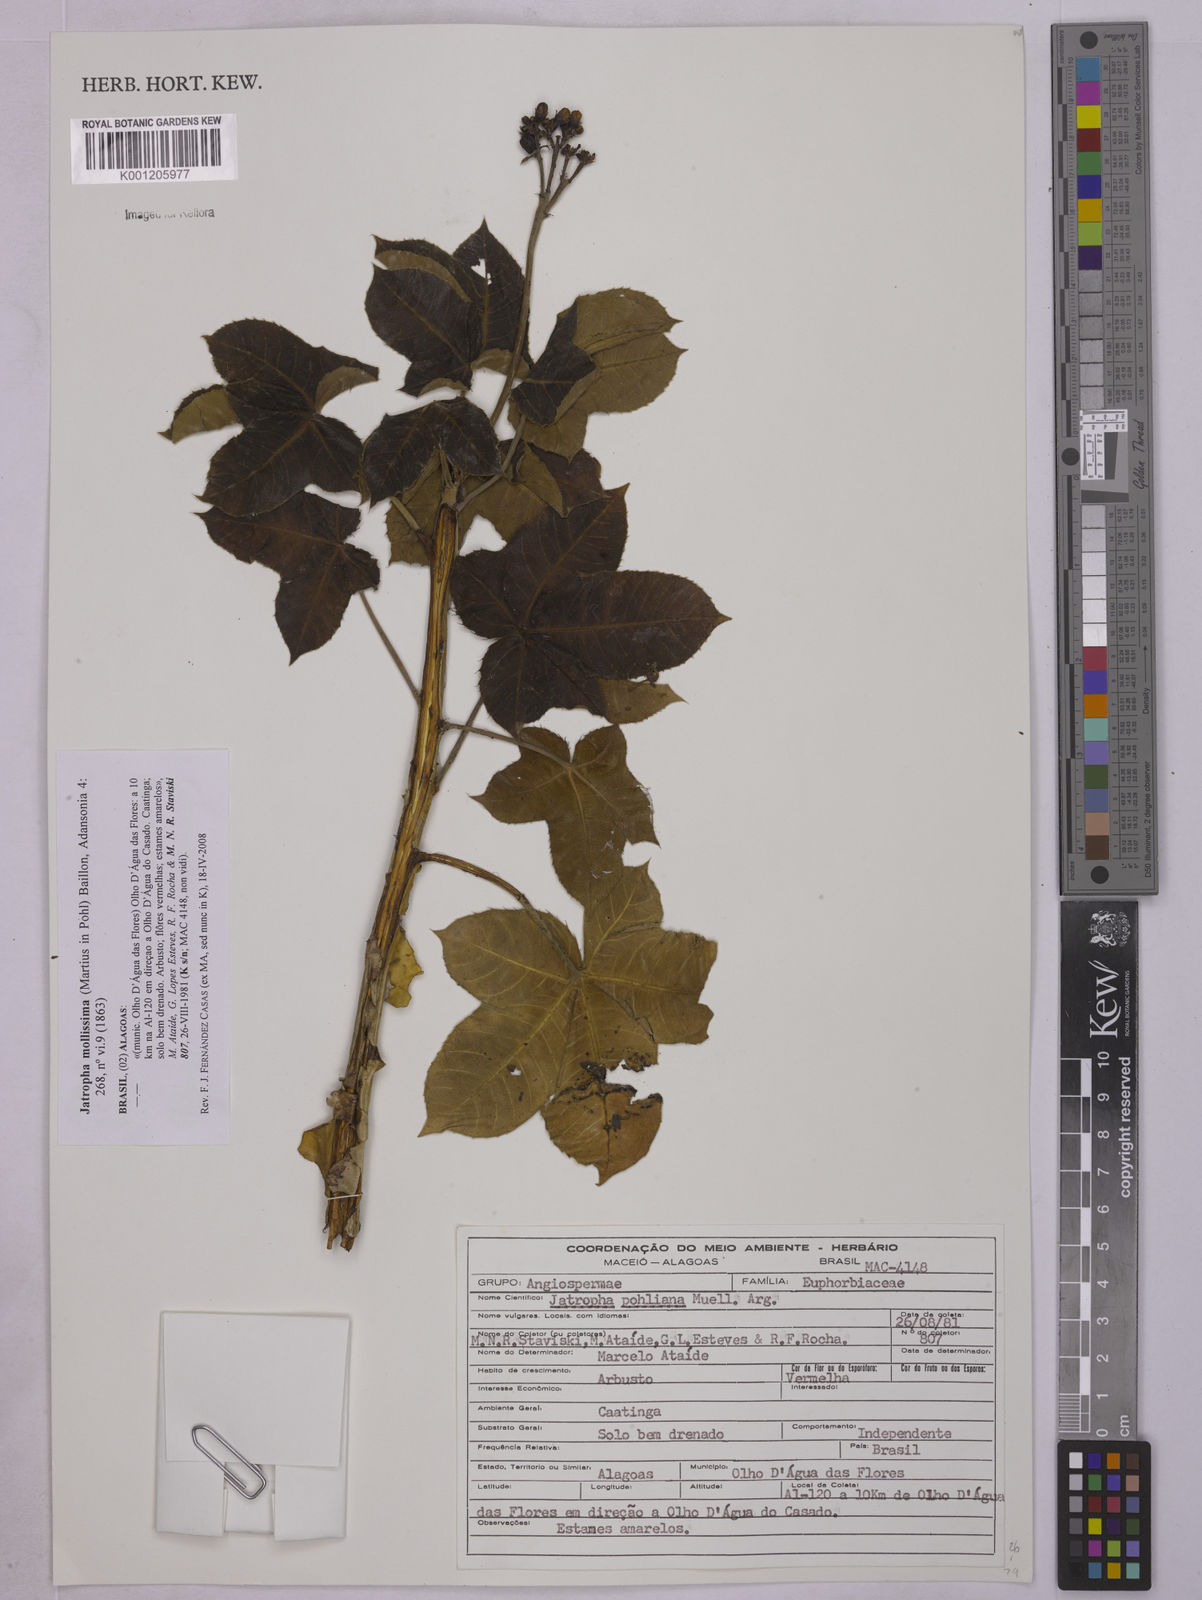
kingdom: Plantae
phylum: Tracheophyta
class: Magnoliopsida
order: Malpighiales
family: Euphorbiaceae
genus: Jatropha
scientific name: Jatropha mollissima
